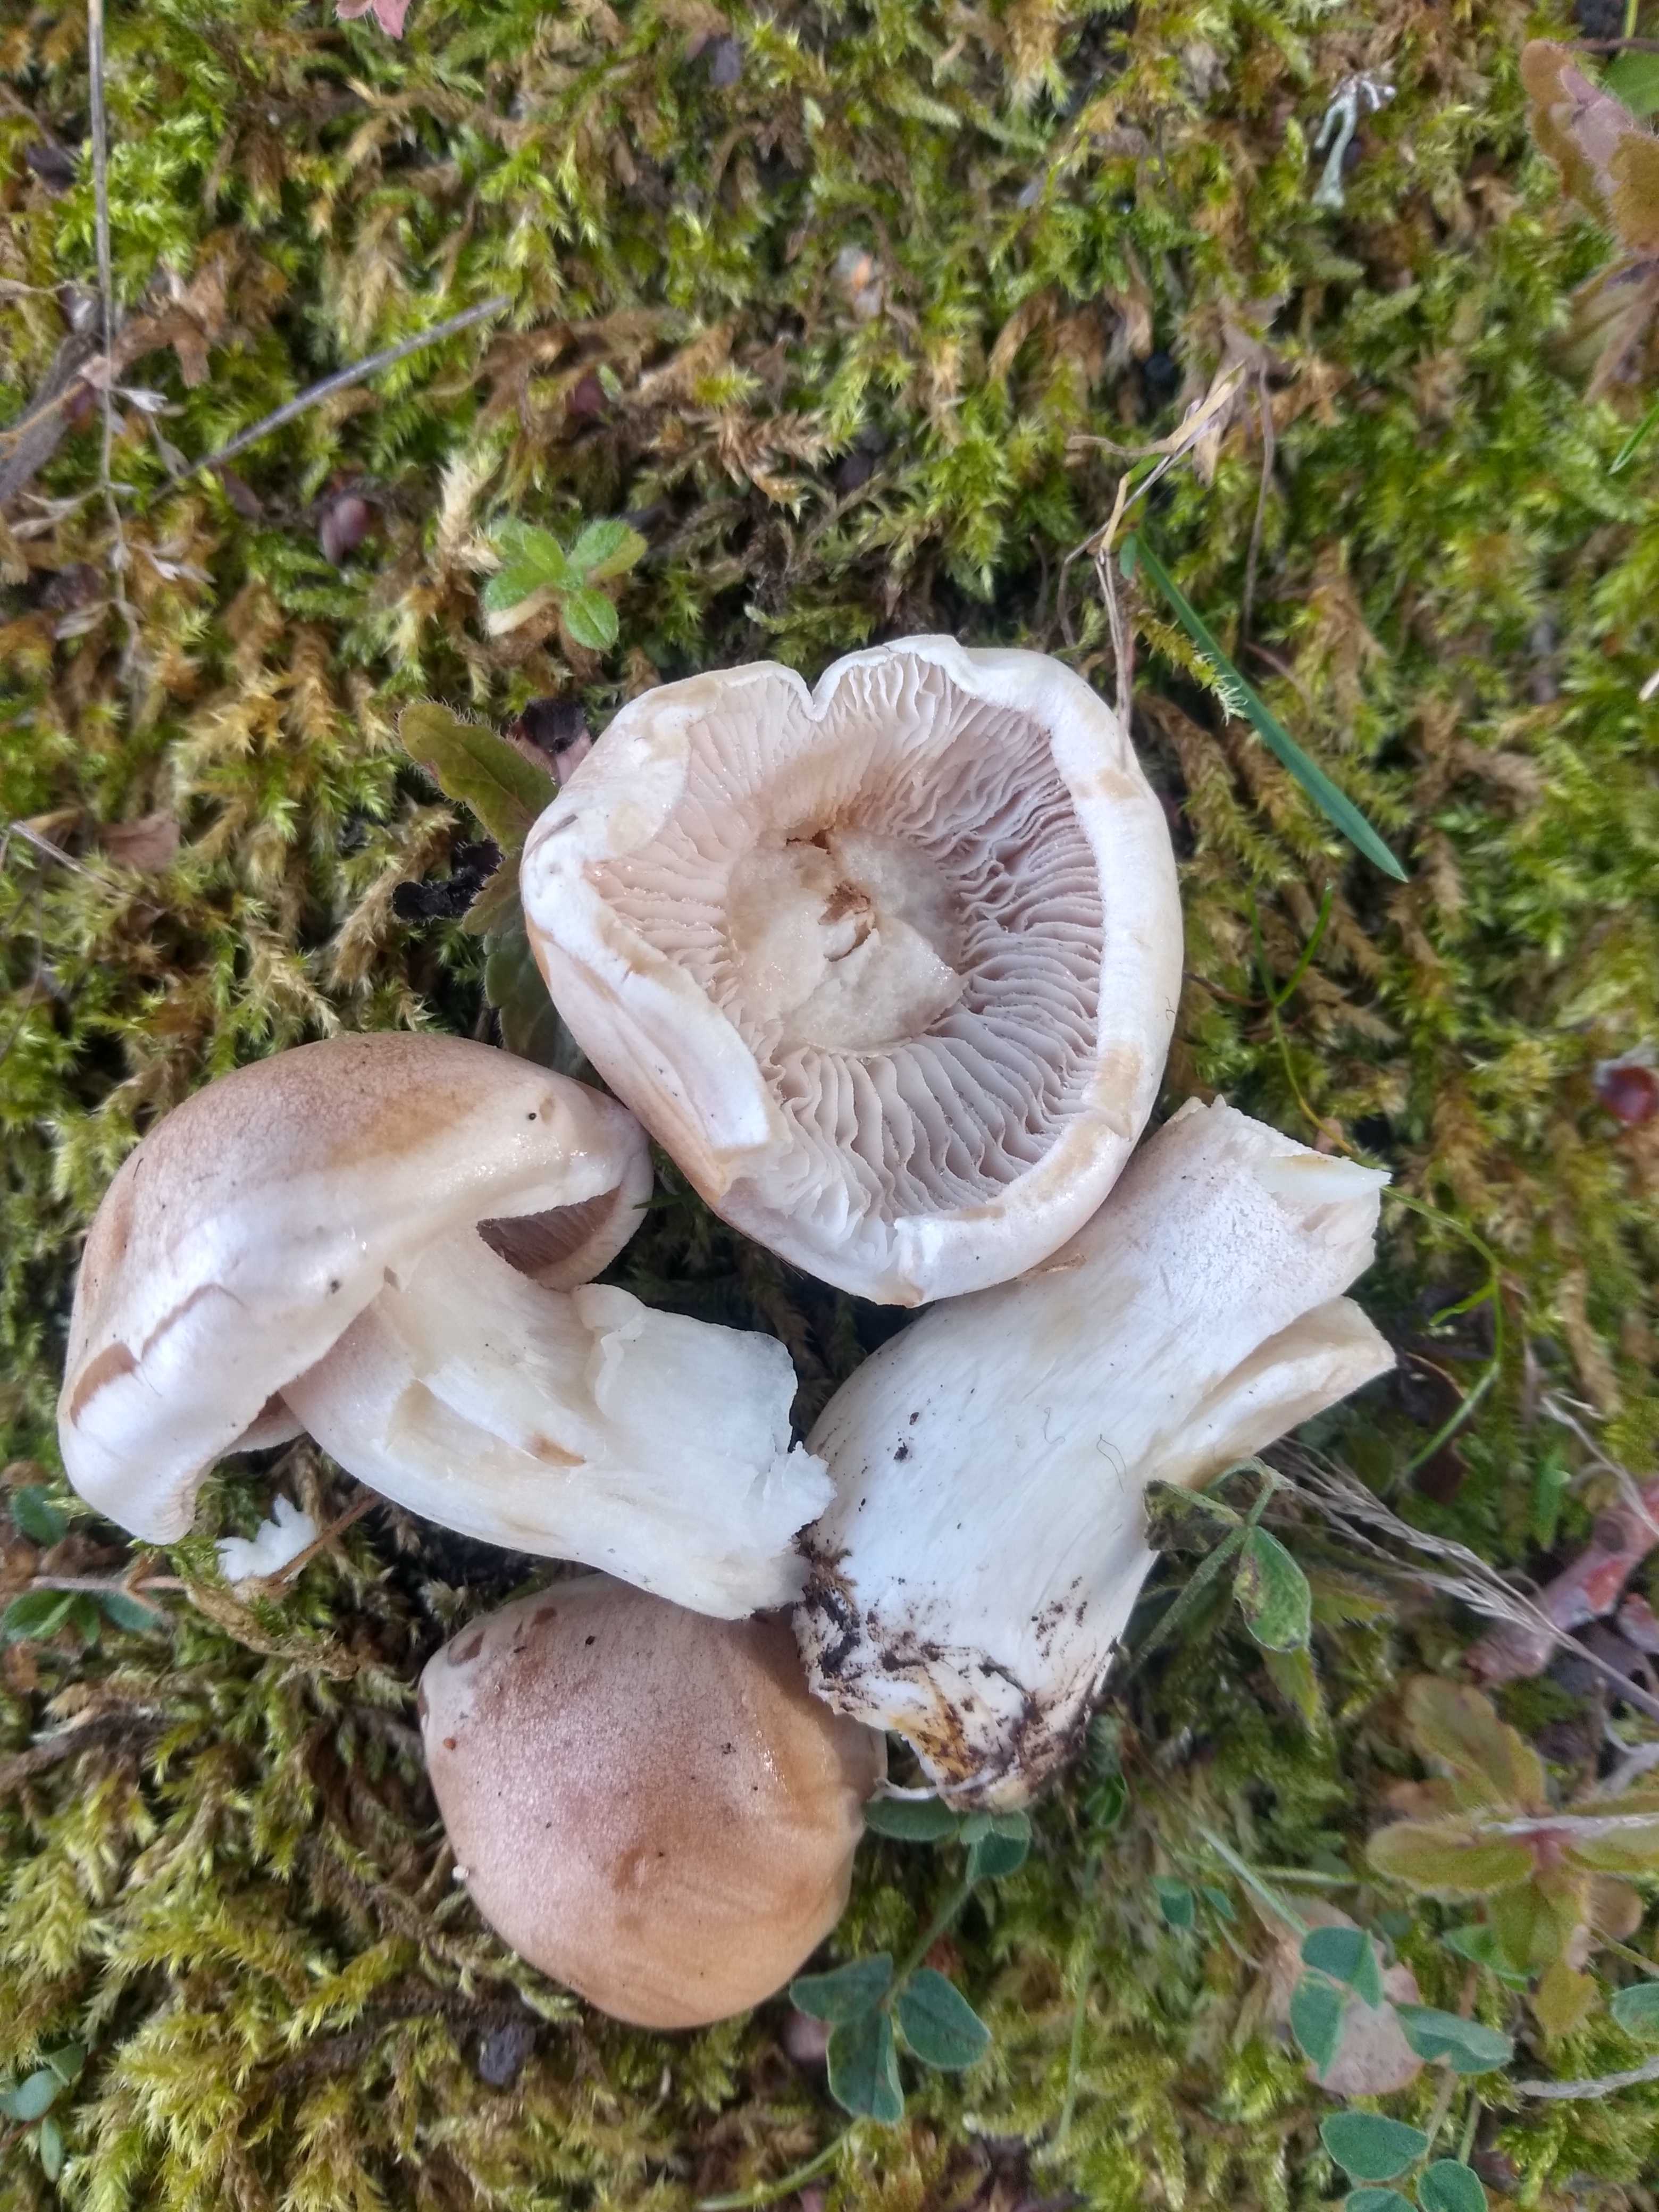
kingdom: Fungi
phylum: Basidiomycota
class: Agaricomycetes
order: Agaricales
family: Hymenogastraceae
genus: Hebeloma
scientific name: Hebeloma
